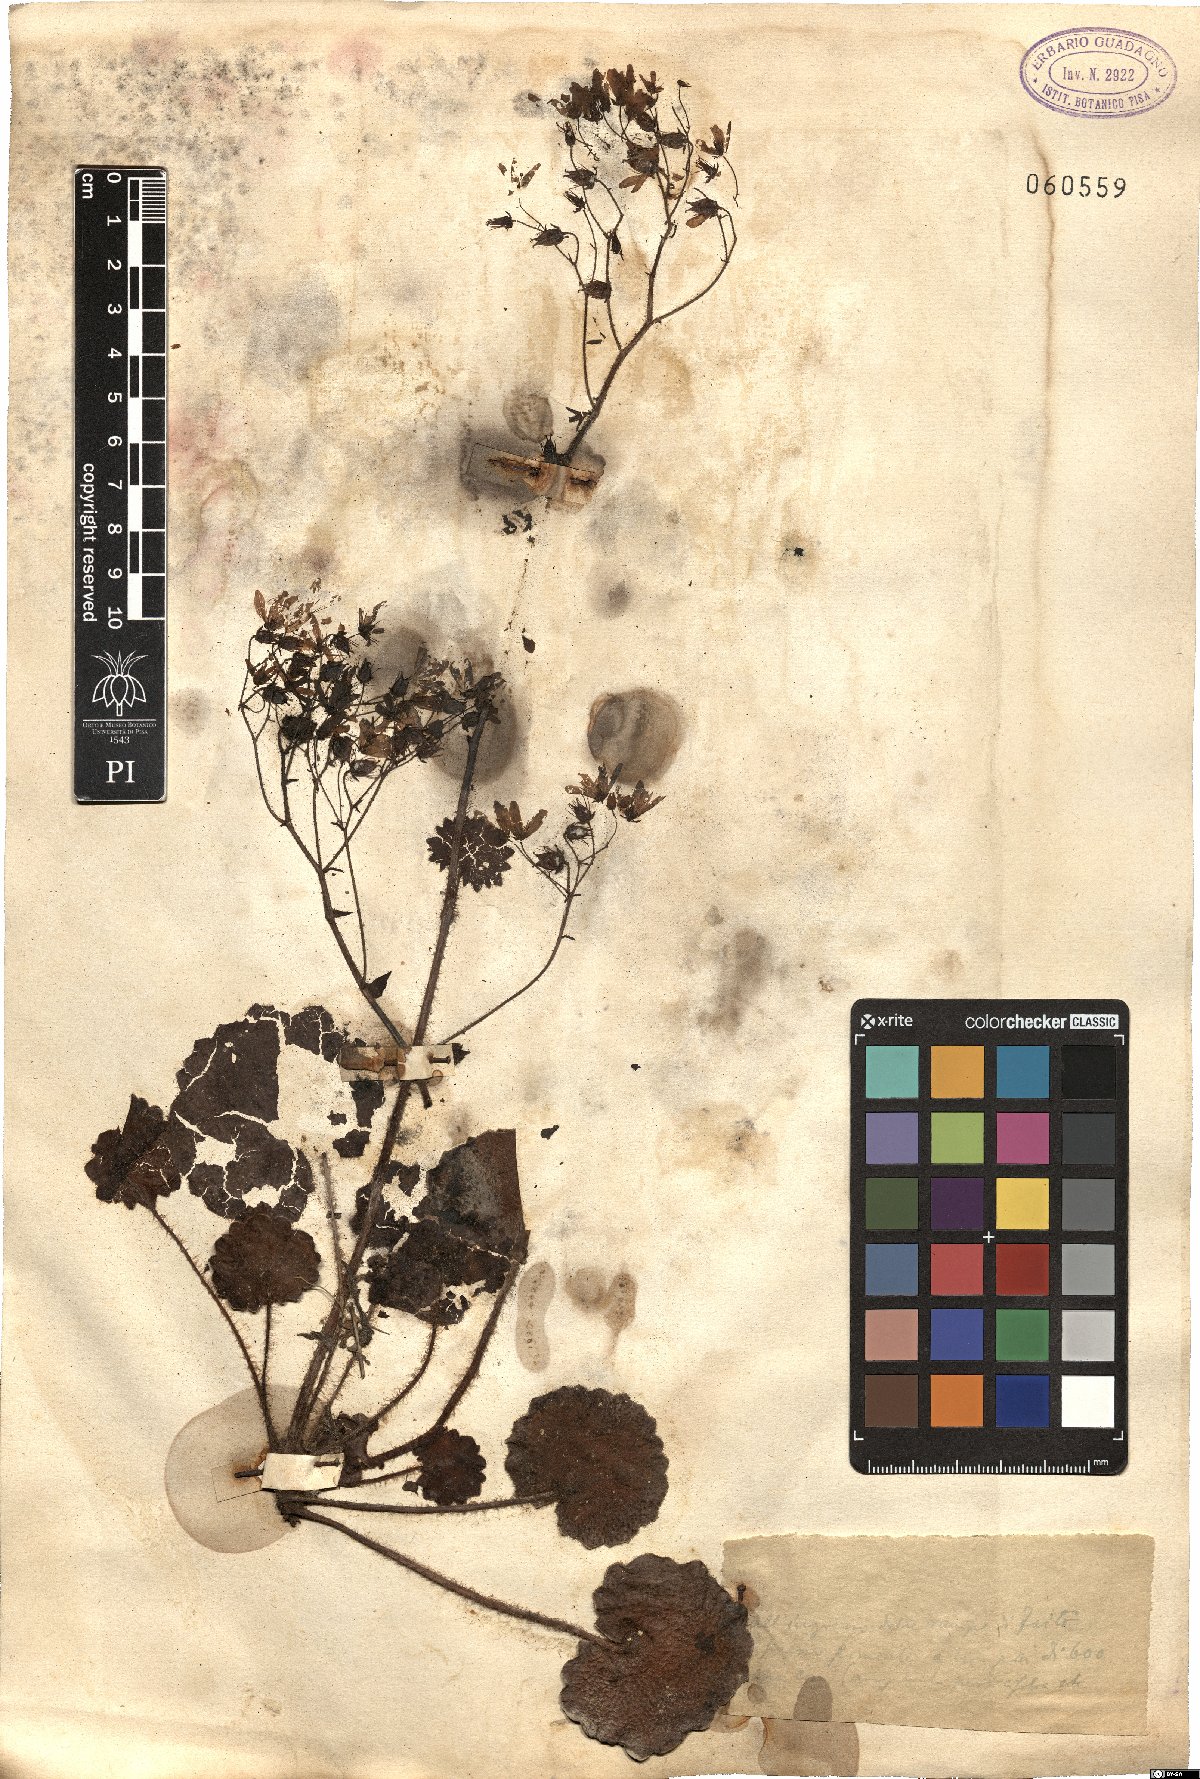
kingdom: Plantae
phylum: Tracheophyta
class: Magnoliopsida
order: Saxifragales
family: Saxifragaceae
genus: Saxifraga
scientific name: Saxifraga rotundifolia
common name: Round-leaved saxifrage
